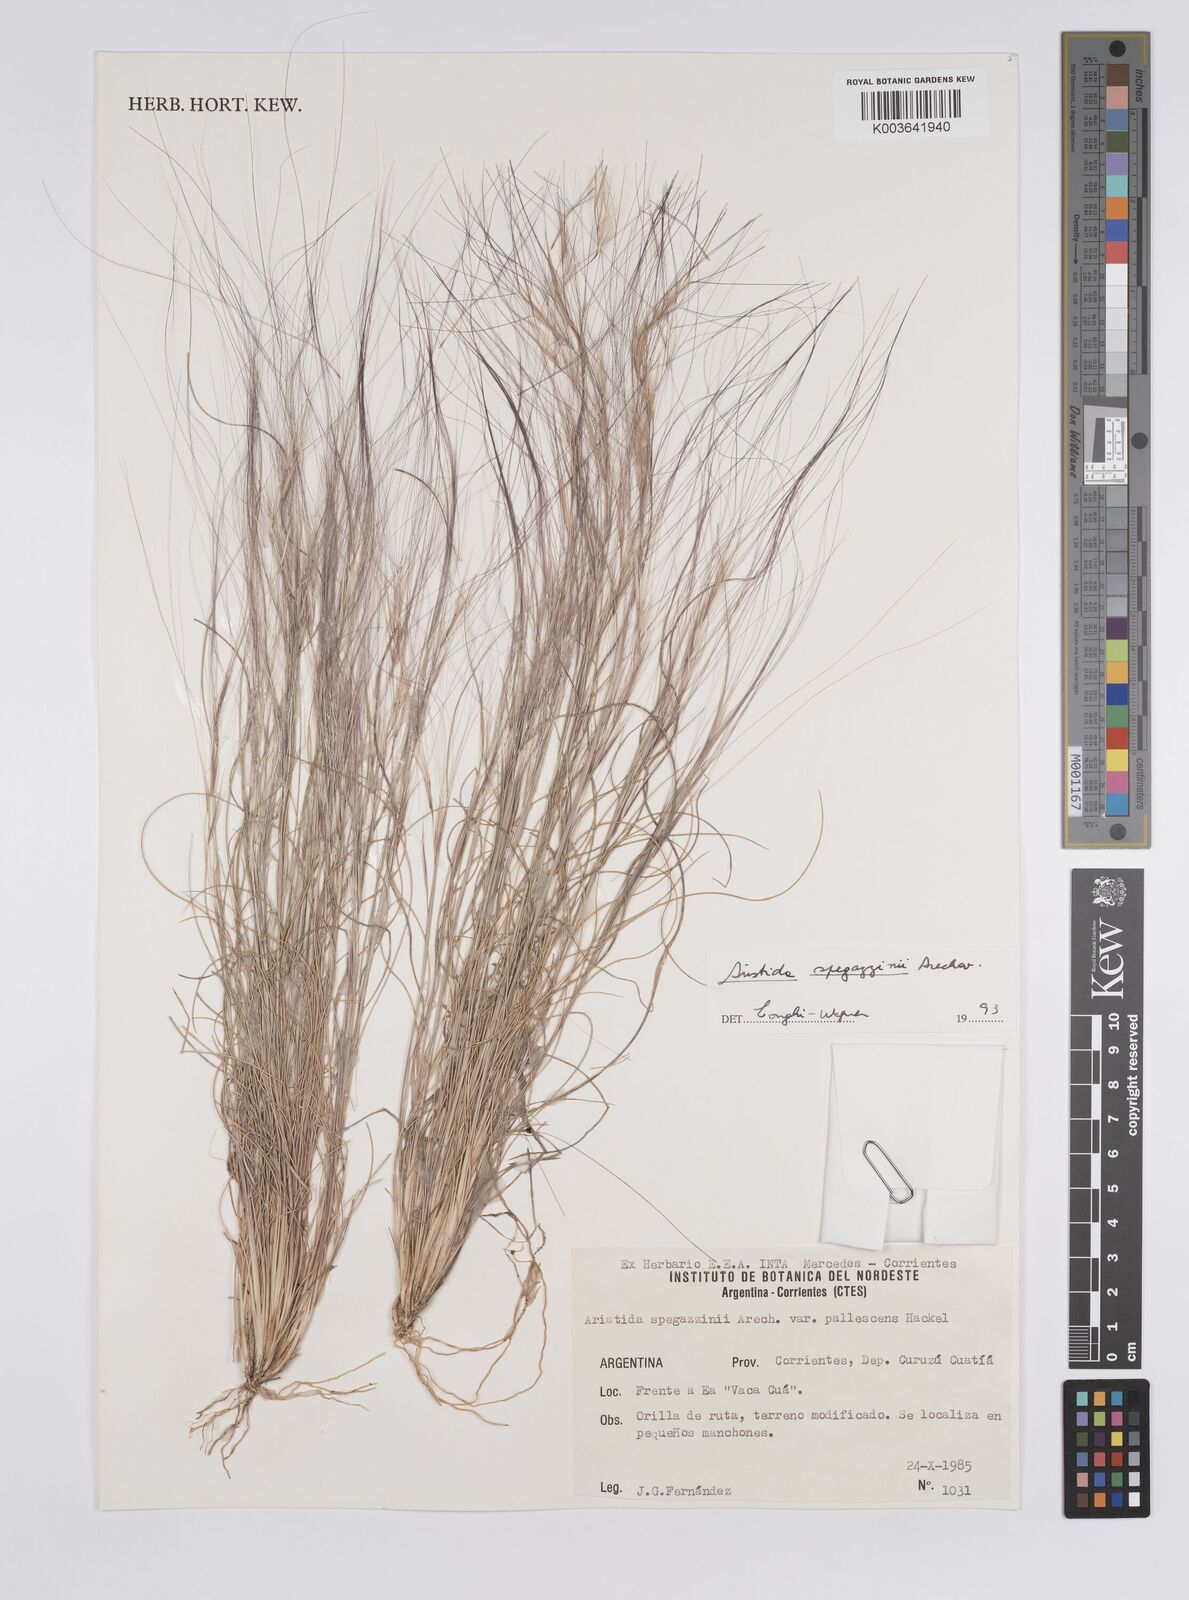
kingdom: Plantae
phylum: Tracheophyta
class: Liliopsida
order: Poales
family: Poaceae
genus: Aristida
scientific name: Aristida spegazzinii
